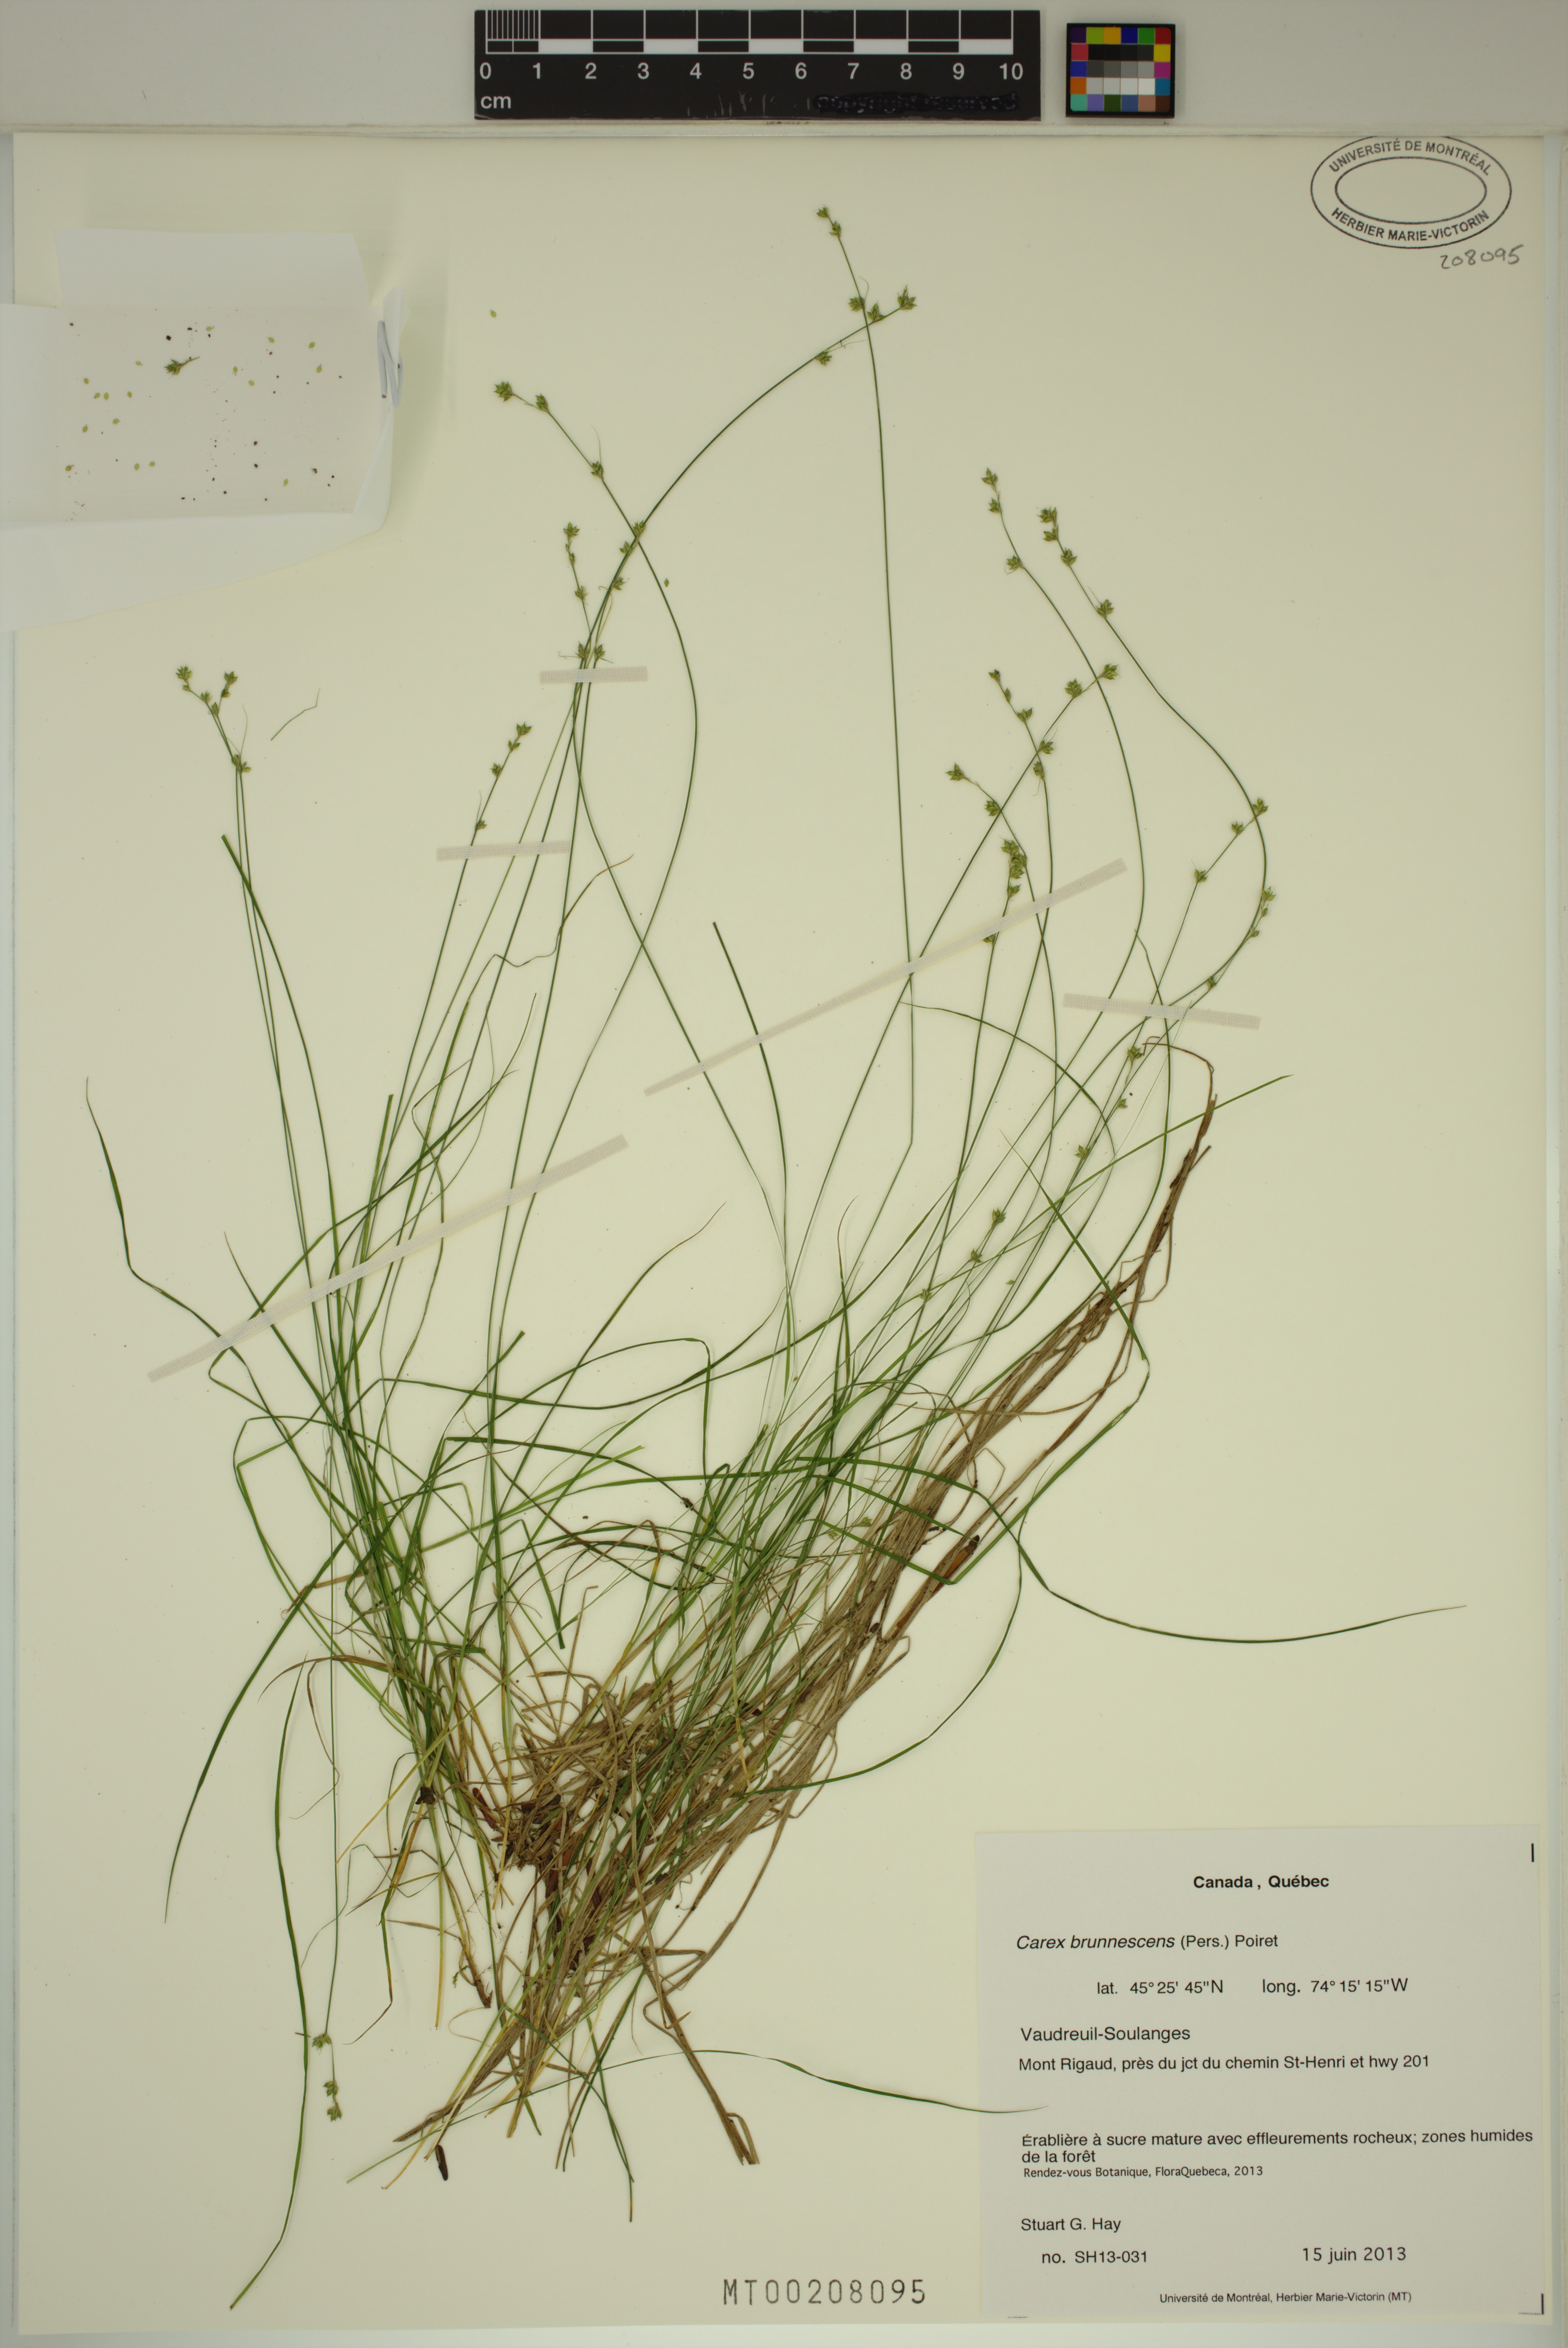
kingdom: Plantae
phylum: Tracheophyta
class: Liliopsida
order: Poales
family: Cyperaceae
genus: Carex
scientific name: Carex brunnescens
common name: Brown sedge
